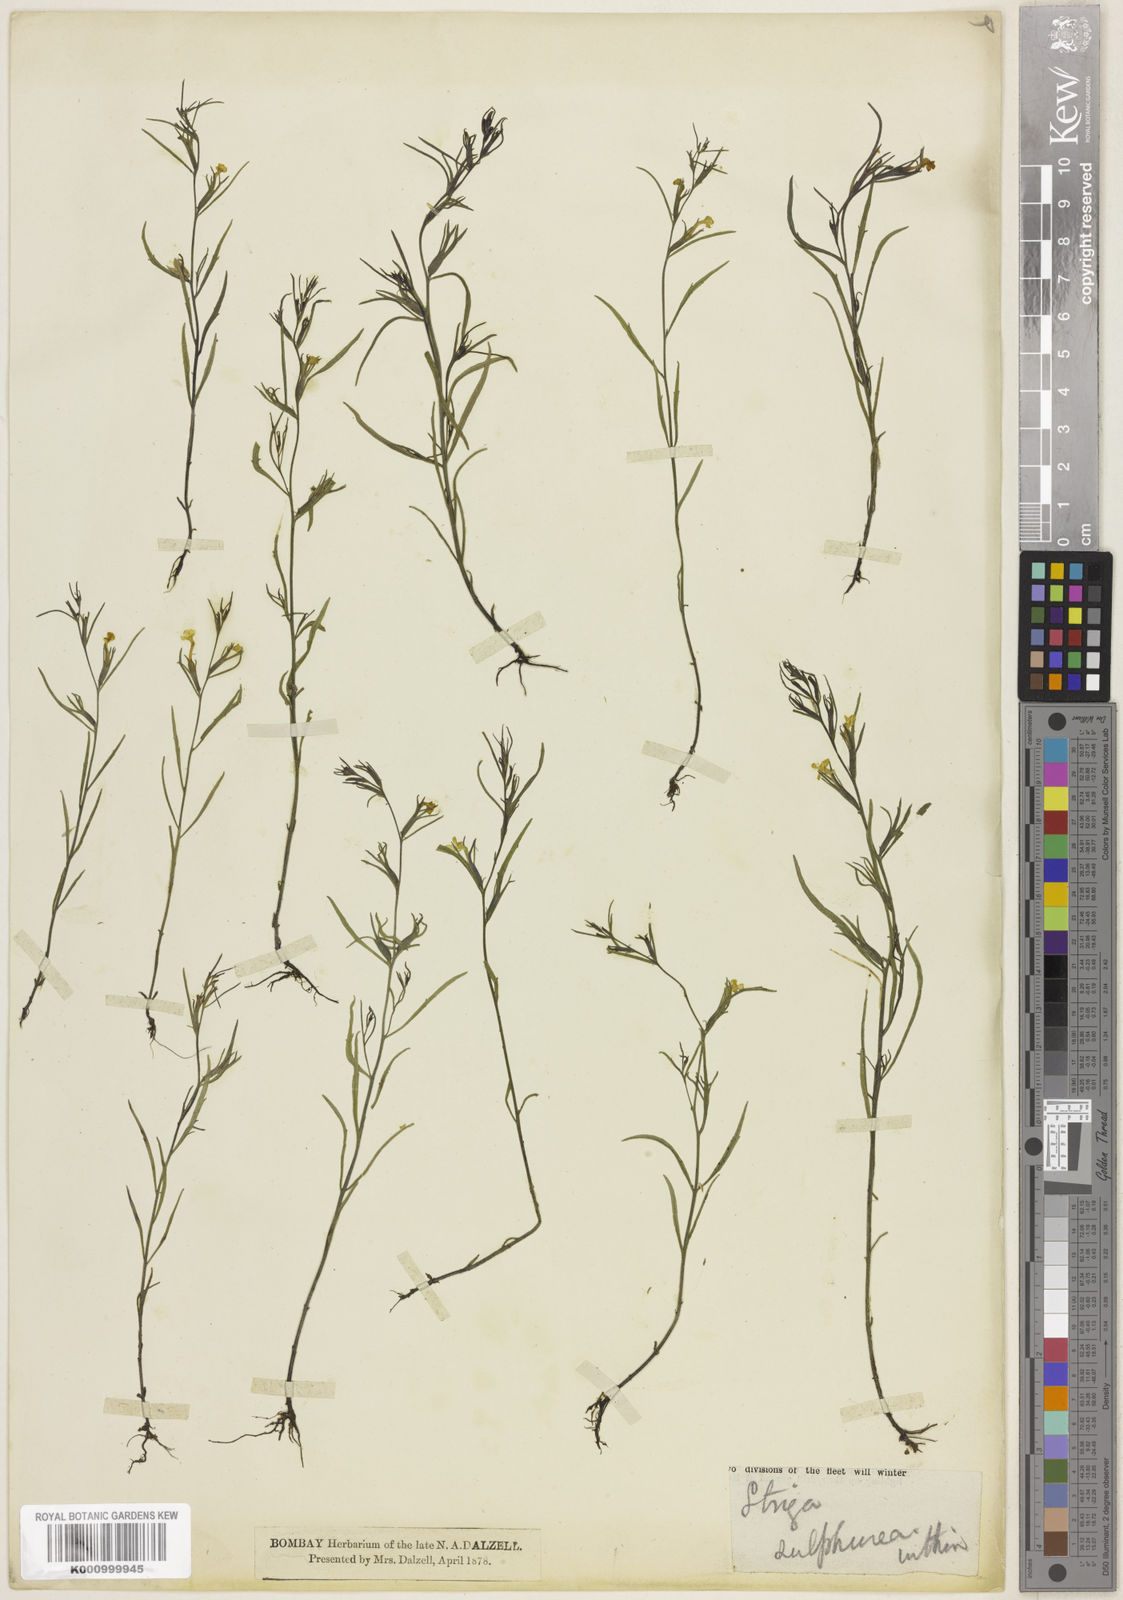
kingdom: Plantae
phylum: Tracheophyta
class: Magnoliopsida
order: Lamiales
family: Orobanchaceae
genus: Striga
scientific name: Striga
